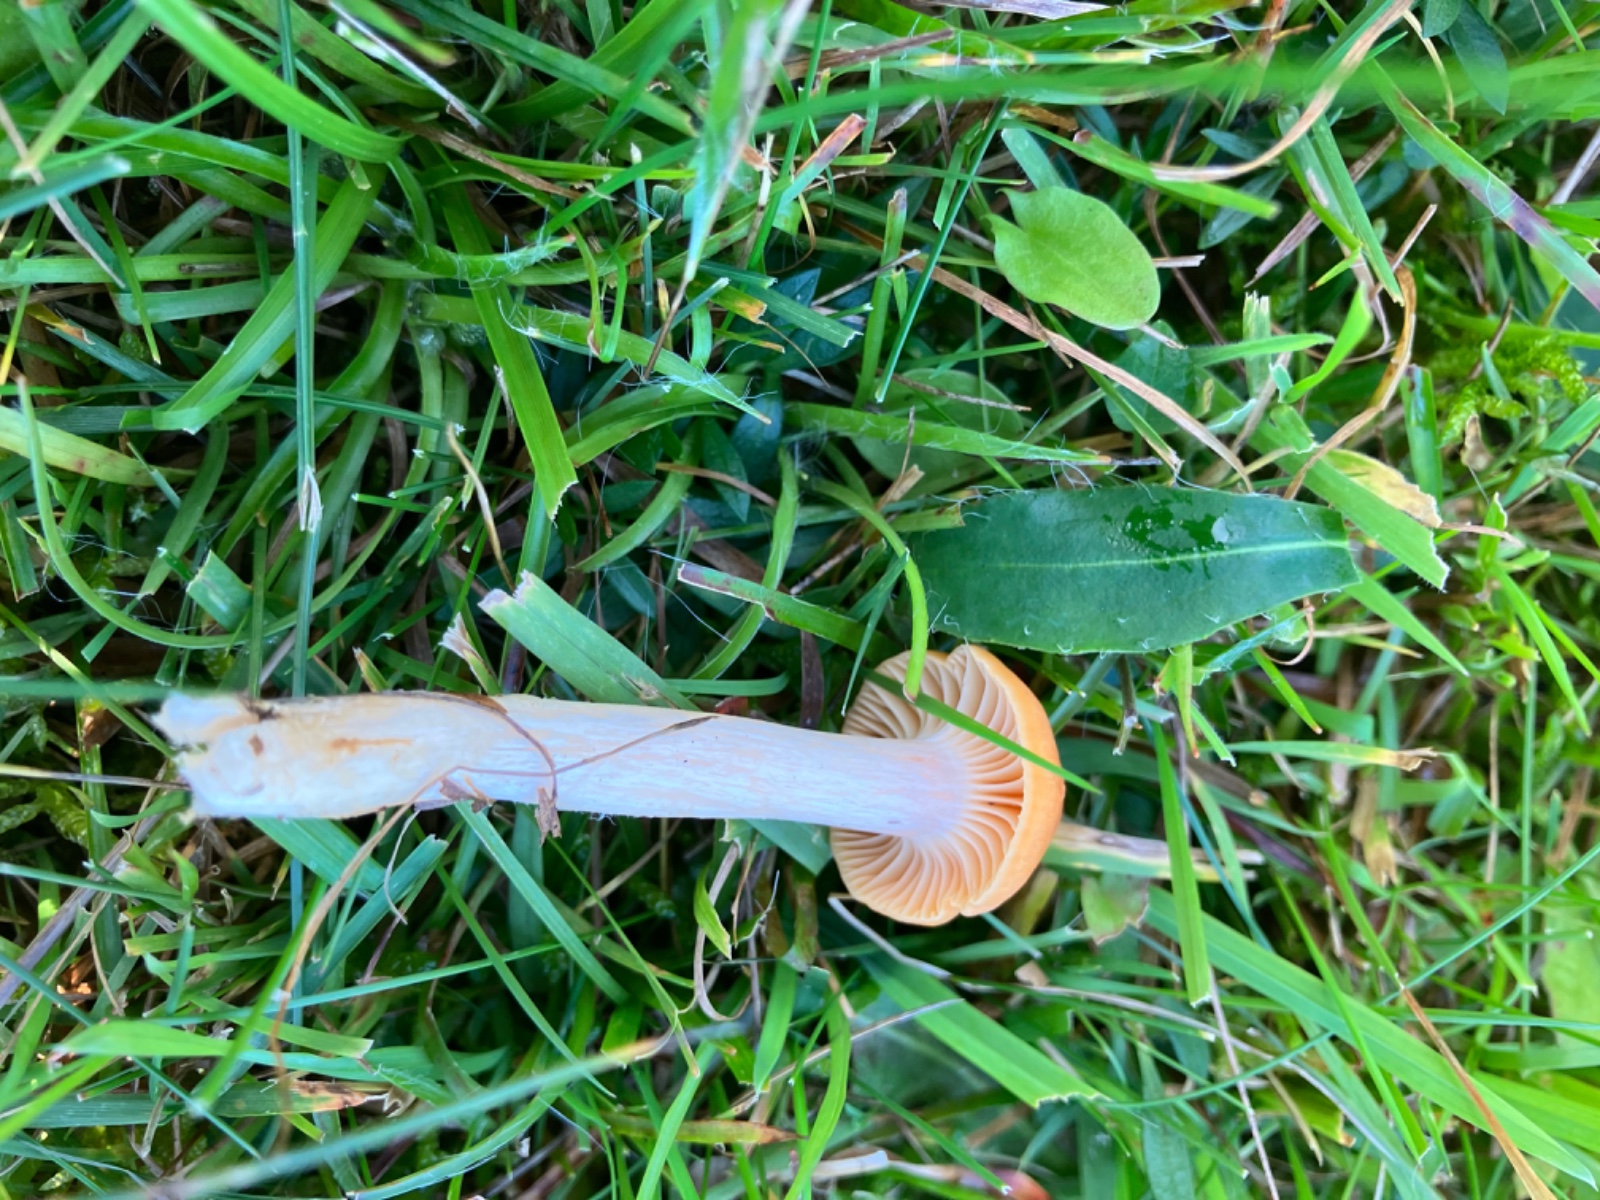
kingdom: Fungi
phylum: Basidiomycota
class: Agaricomycetes
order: Agaricales
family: Hygrophoraceae
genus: Cuphophyllus
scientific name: Cuphophyllus pratensis
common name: eng-vokshat
